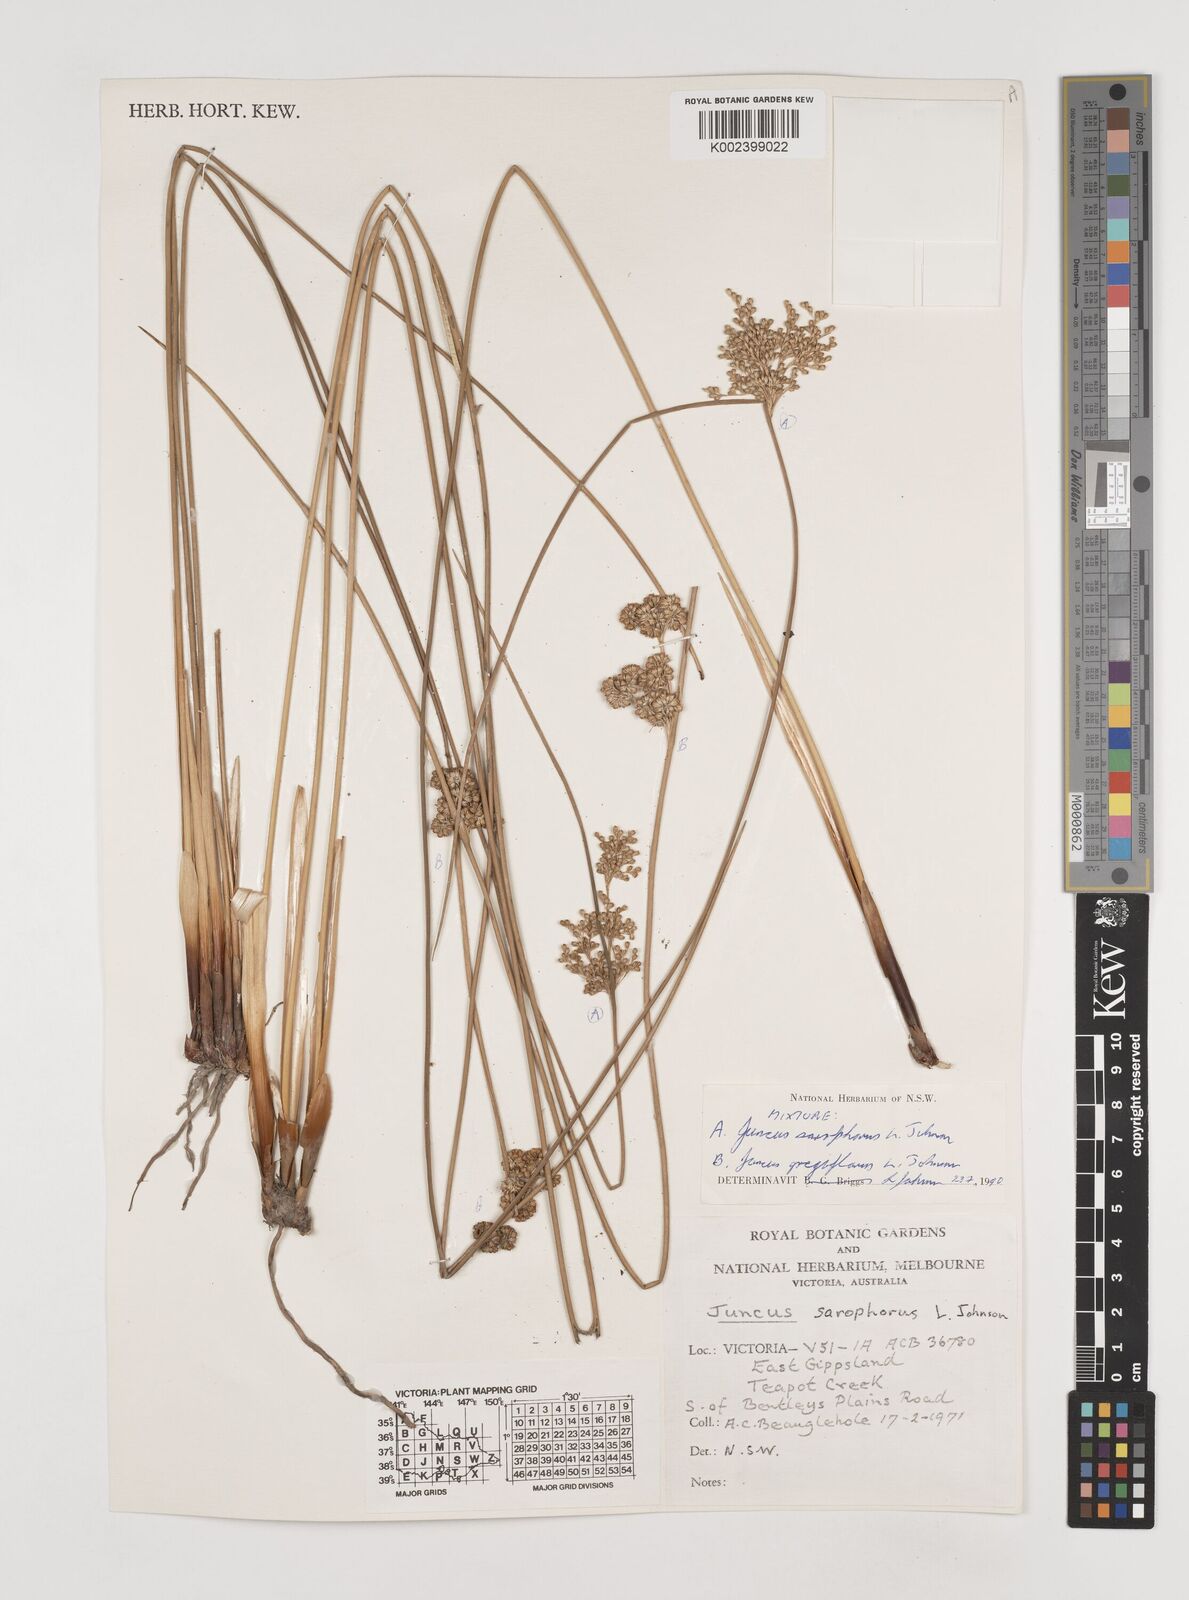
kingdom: Plantae
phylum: Tracheophyta
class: Liliopsida
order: Poales
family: Juncaceae
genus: Juncus
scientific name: Juncus sarophorus
